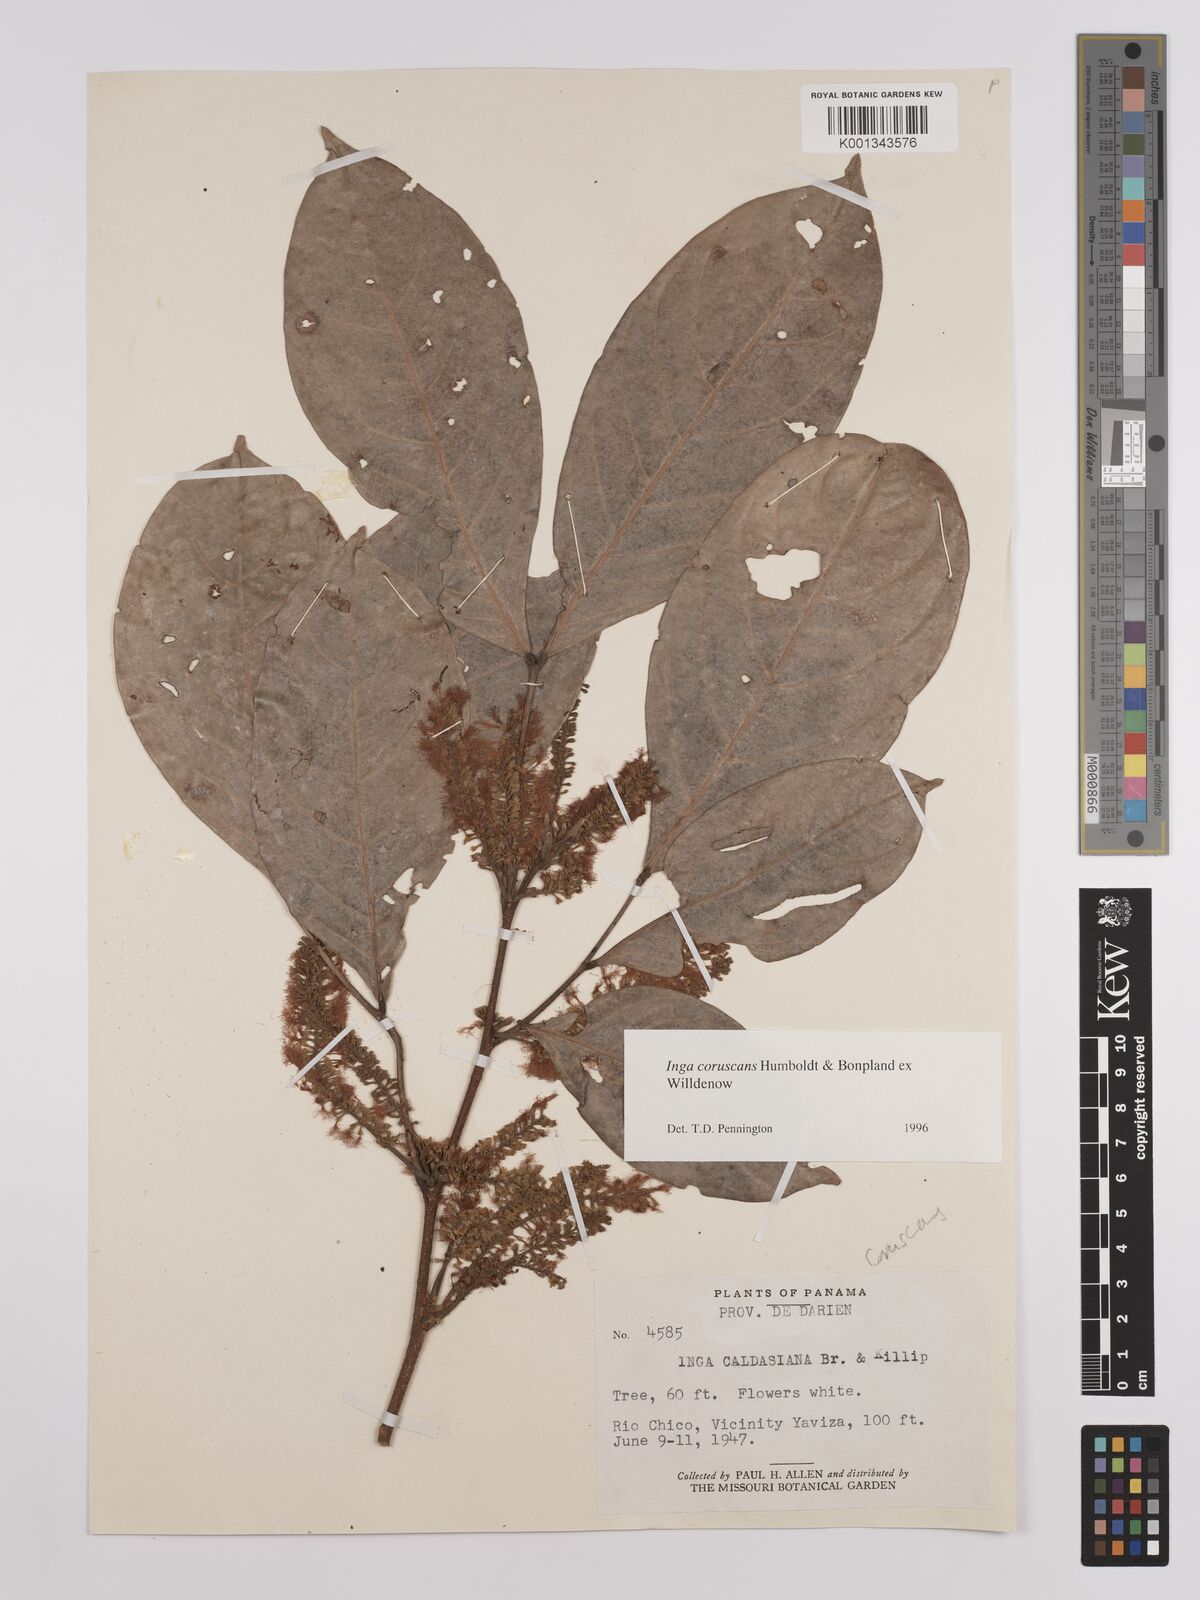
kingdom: Plantae
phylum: Tracheophyta
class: Magnoliopsida
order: Fabales
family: Fabaceae
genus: Inga
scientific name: Inga coruscans
